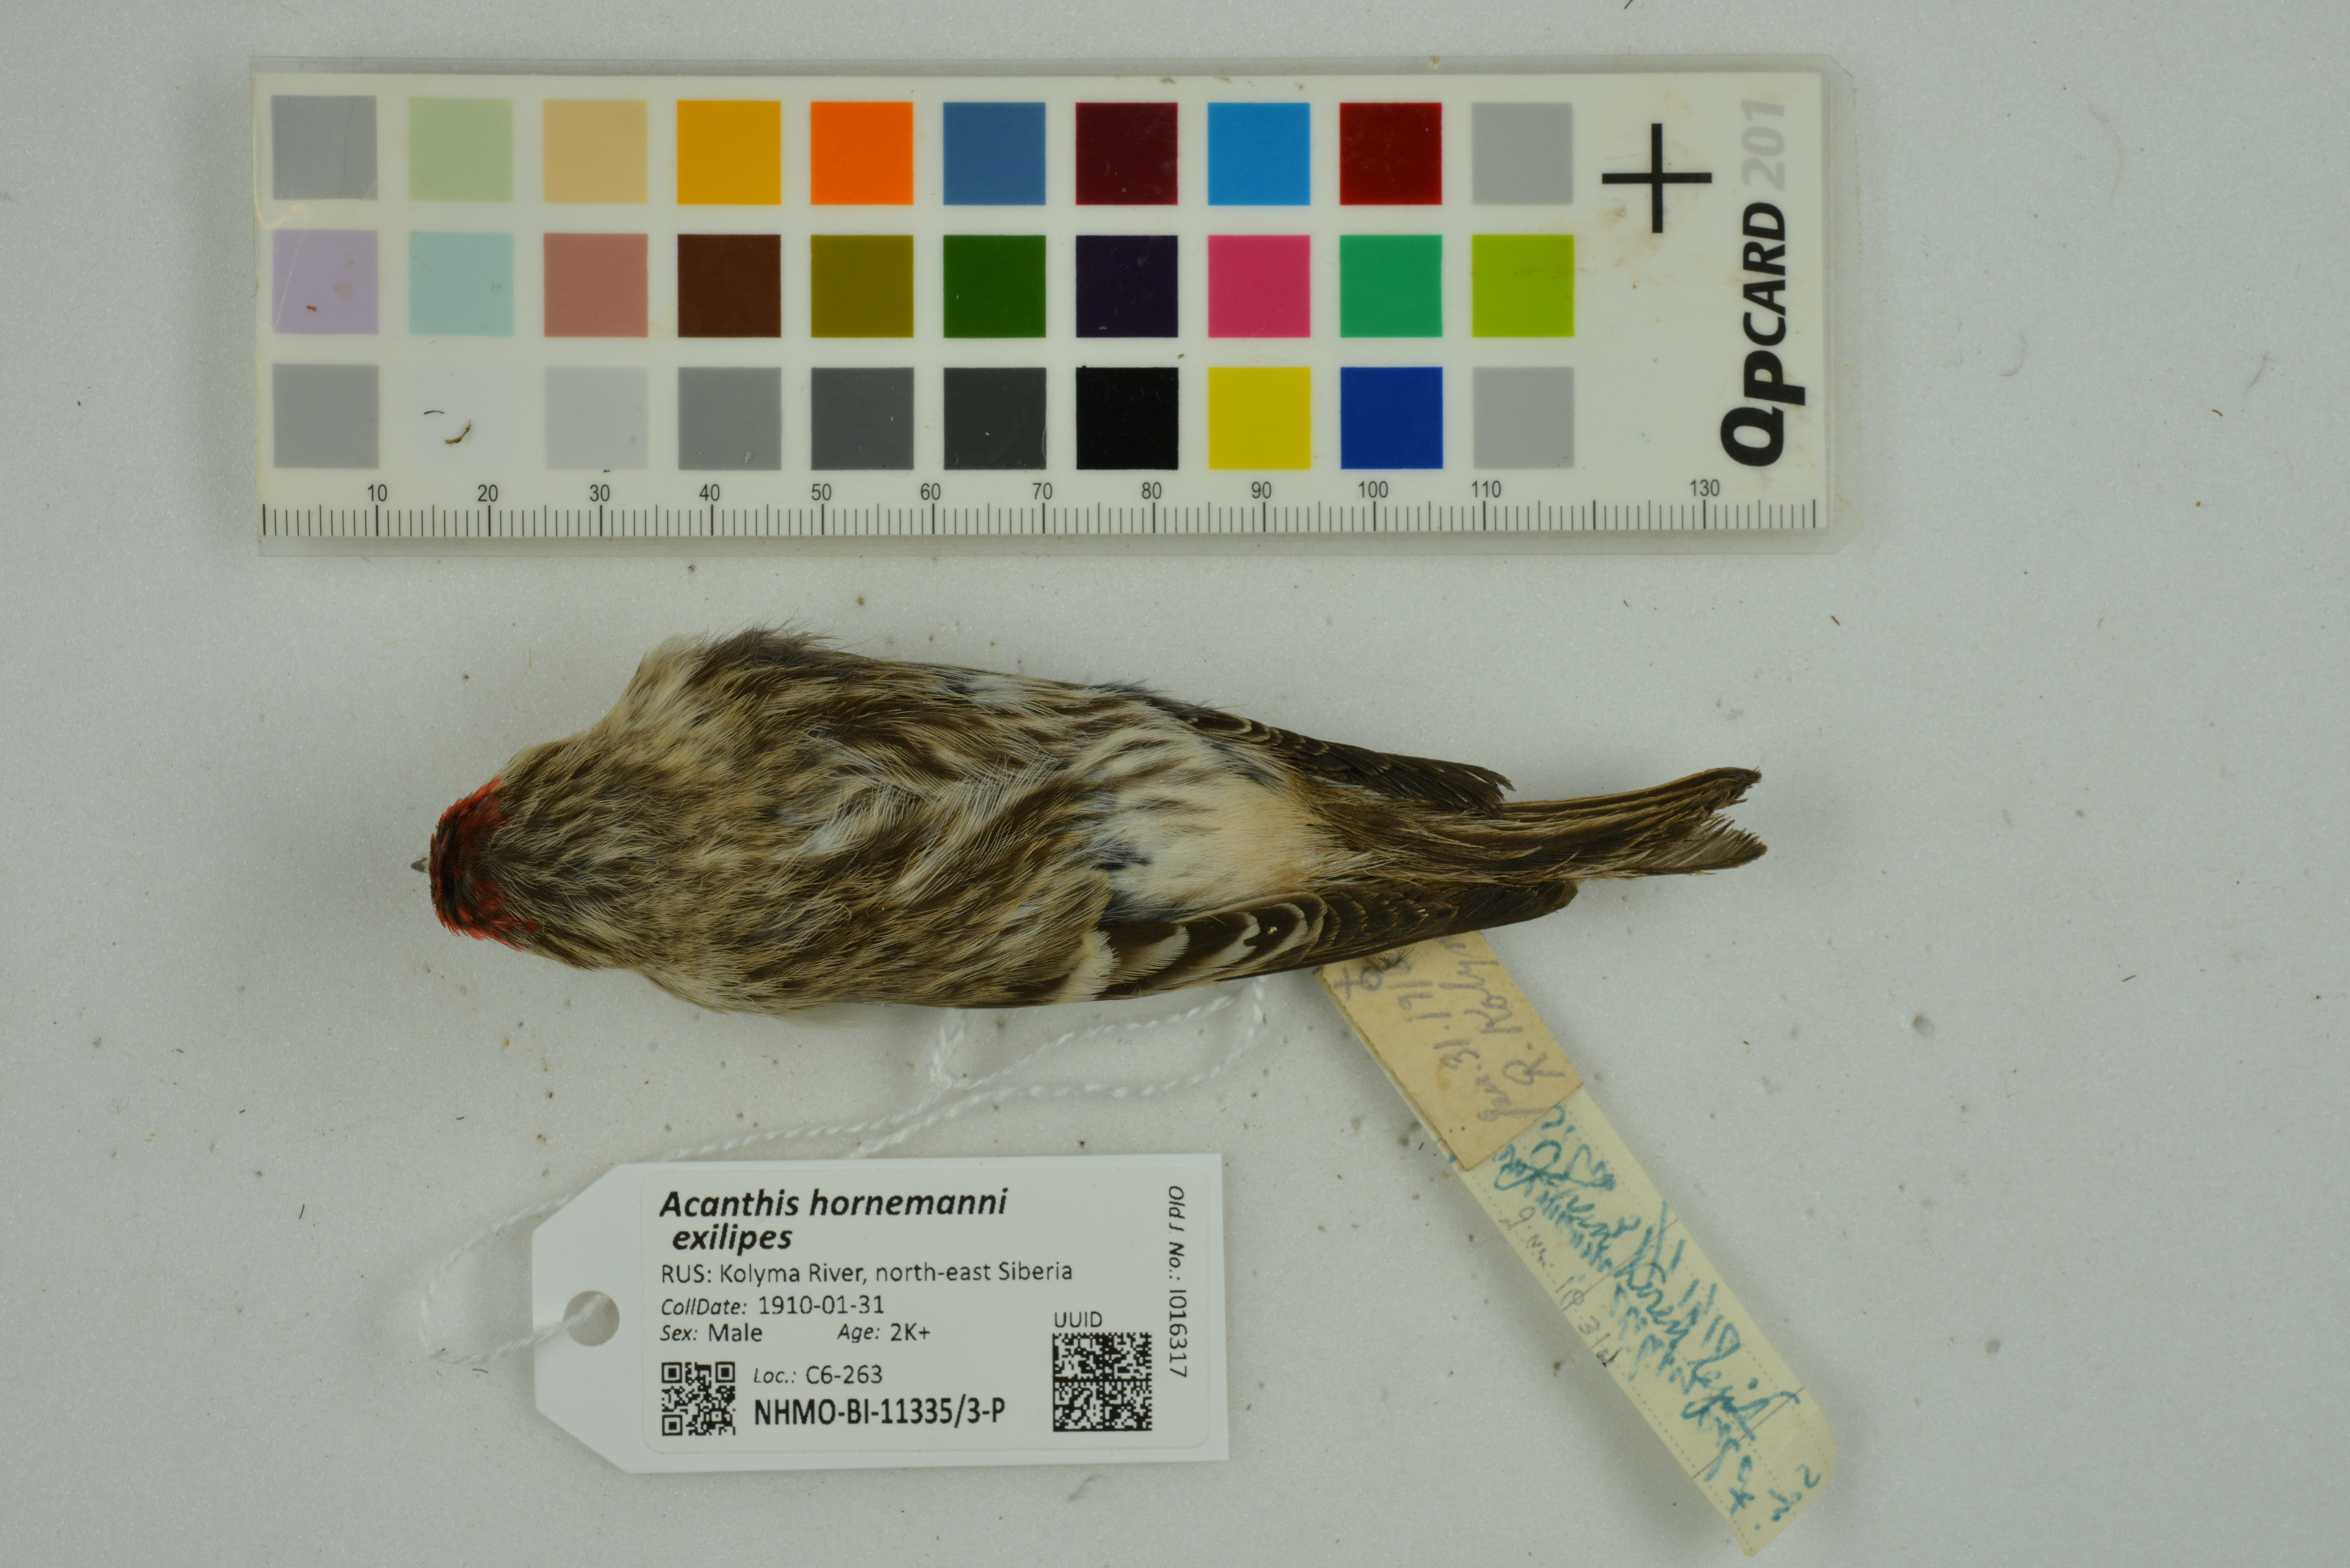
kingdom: Animalia
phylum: Chordata
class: Aves
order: Passeriformes
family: Fringillidae
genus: Acanthis
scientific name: Acanthis hornemanni
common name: Arctic redpoll
